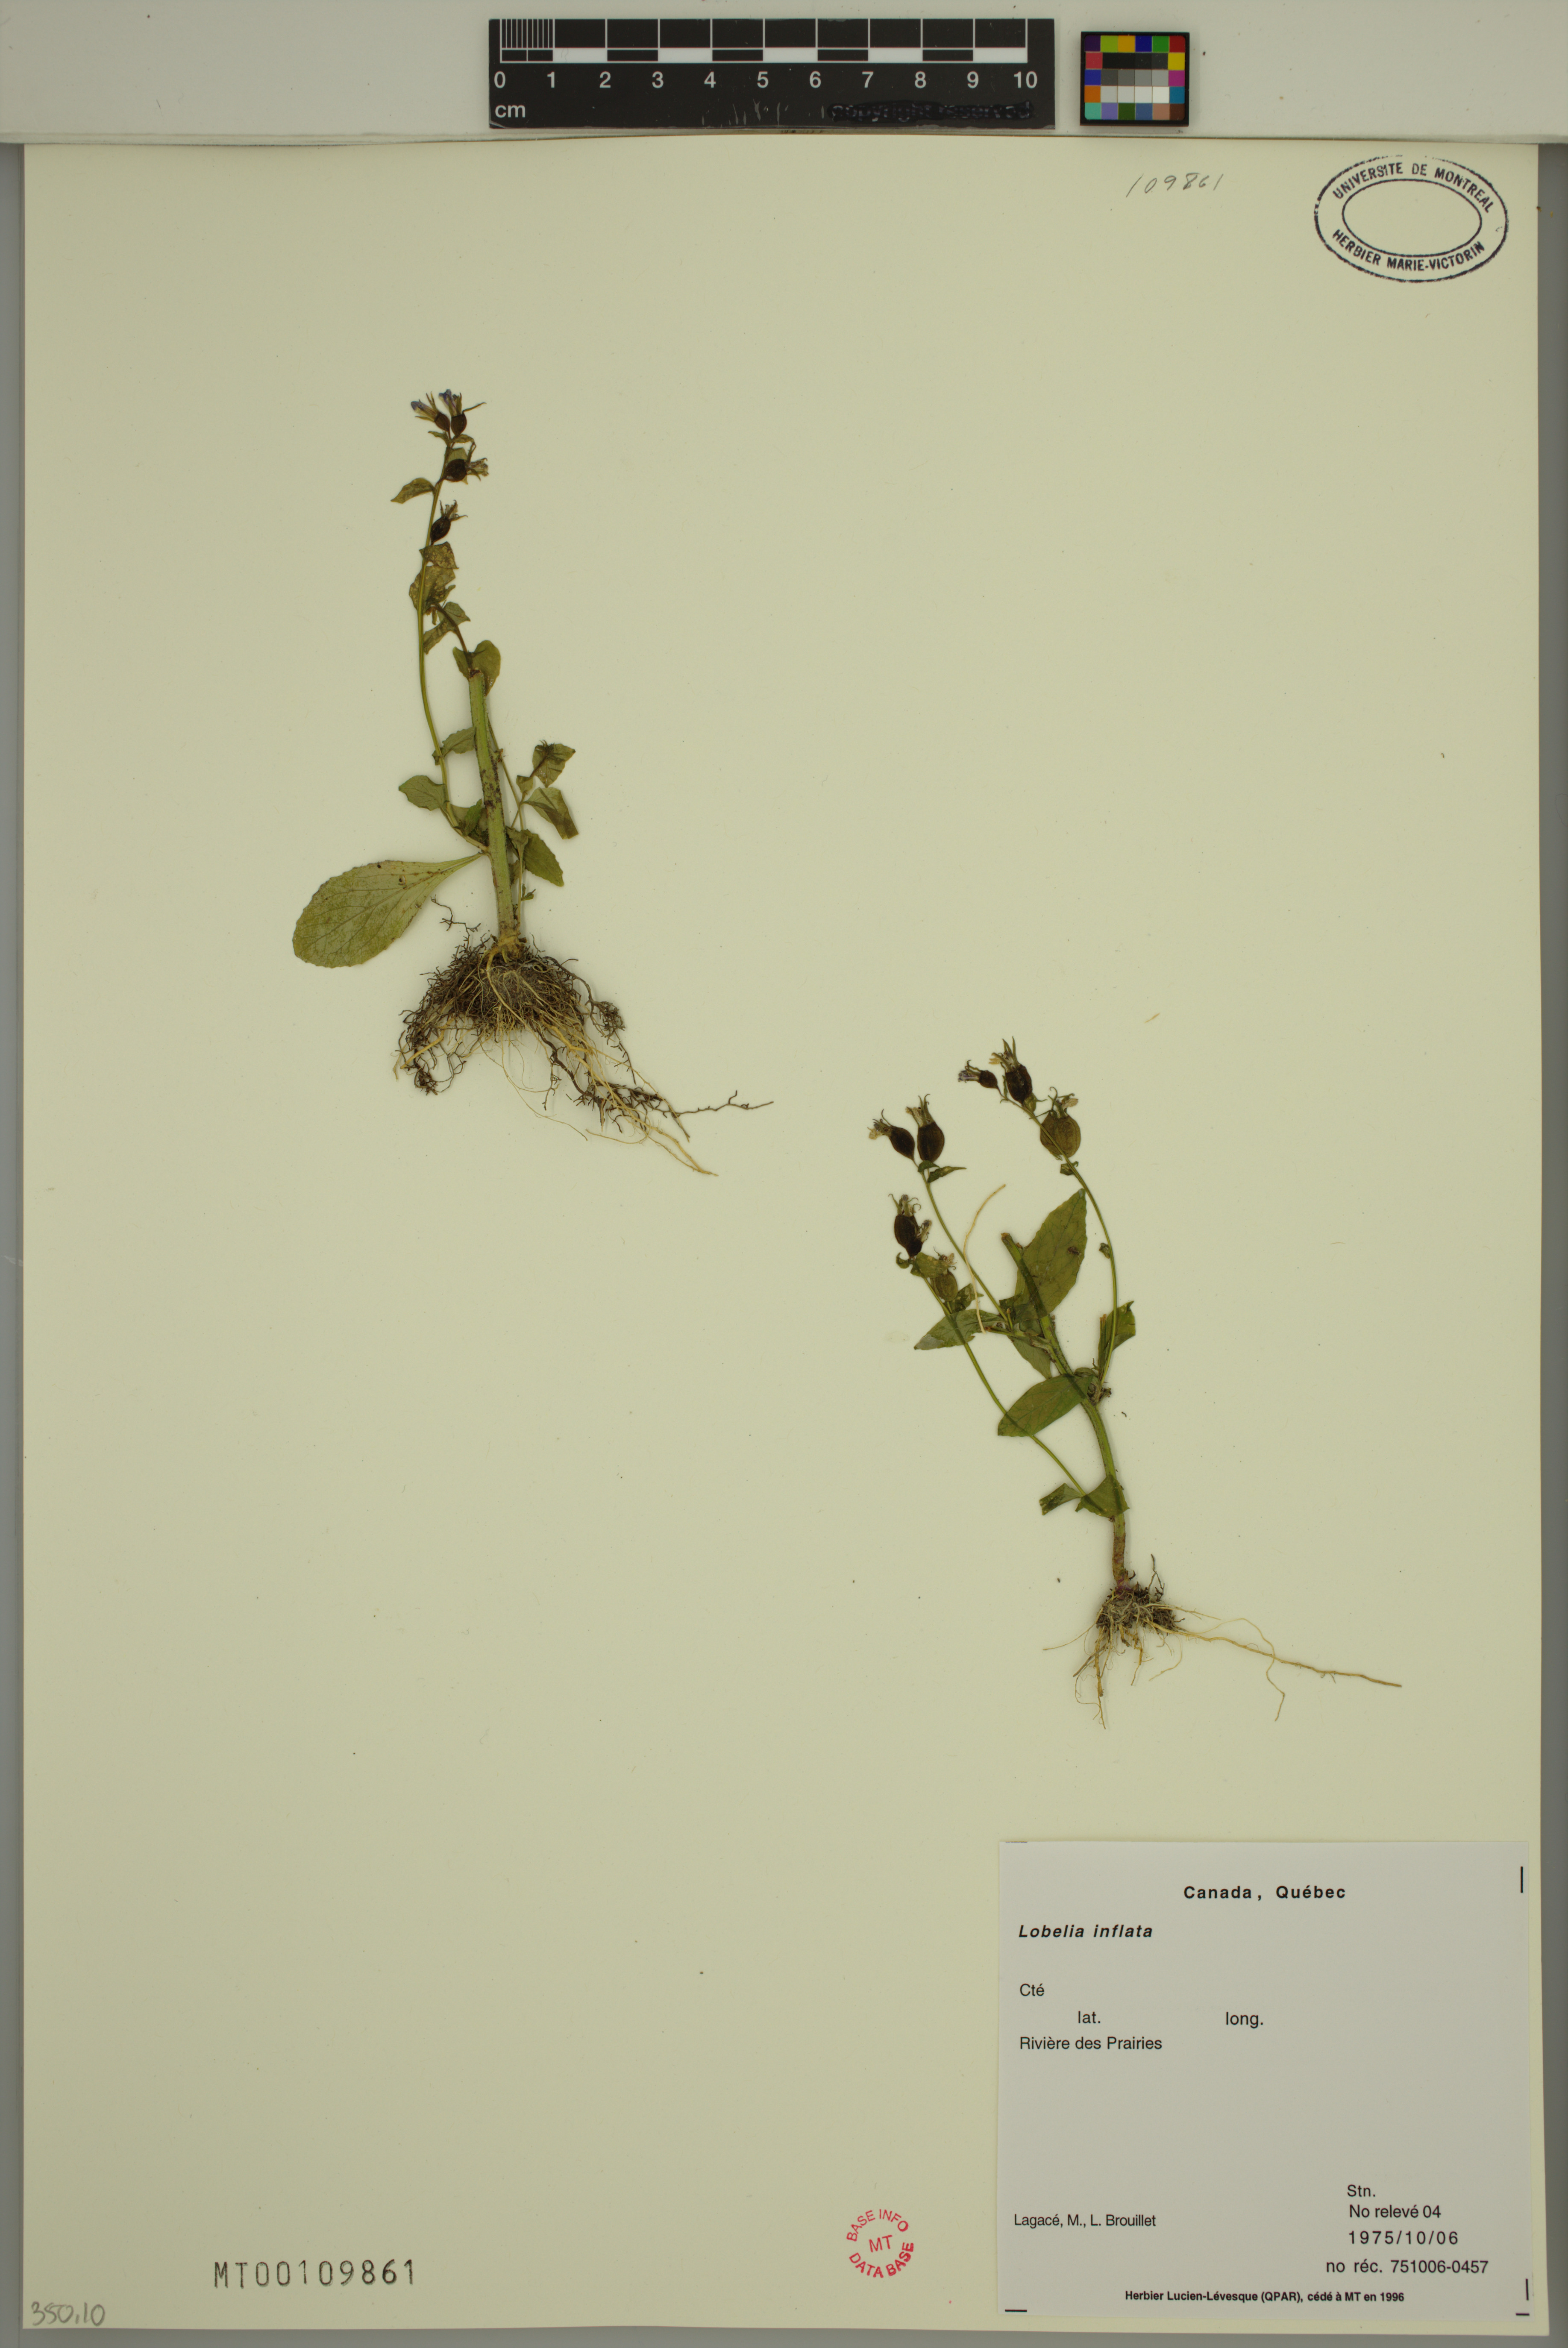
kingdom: Plantae
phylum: Tracheophyta
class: Magnoliopsida
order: Asterales
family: Campanulaceae
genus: Lobelia
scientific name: Lobelia inflata
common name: Indian tobacco
